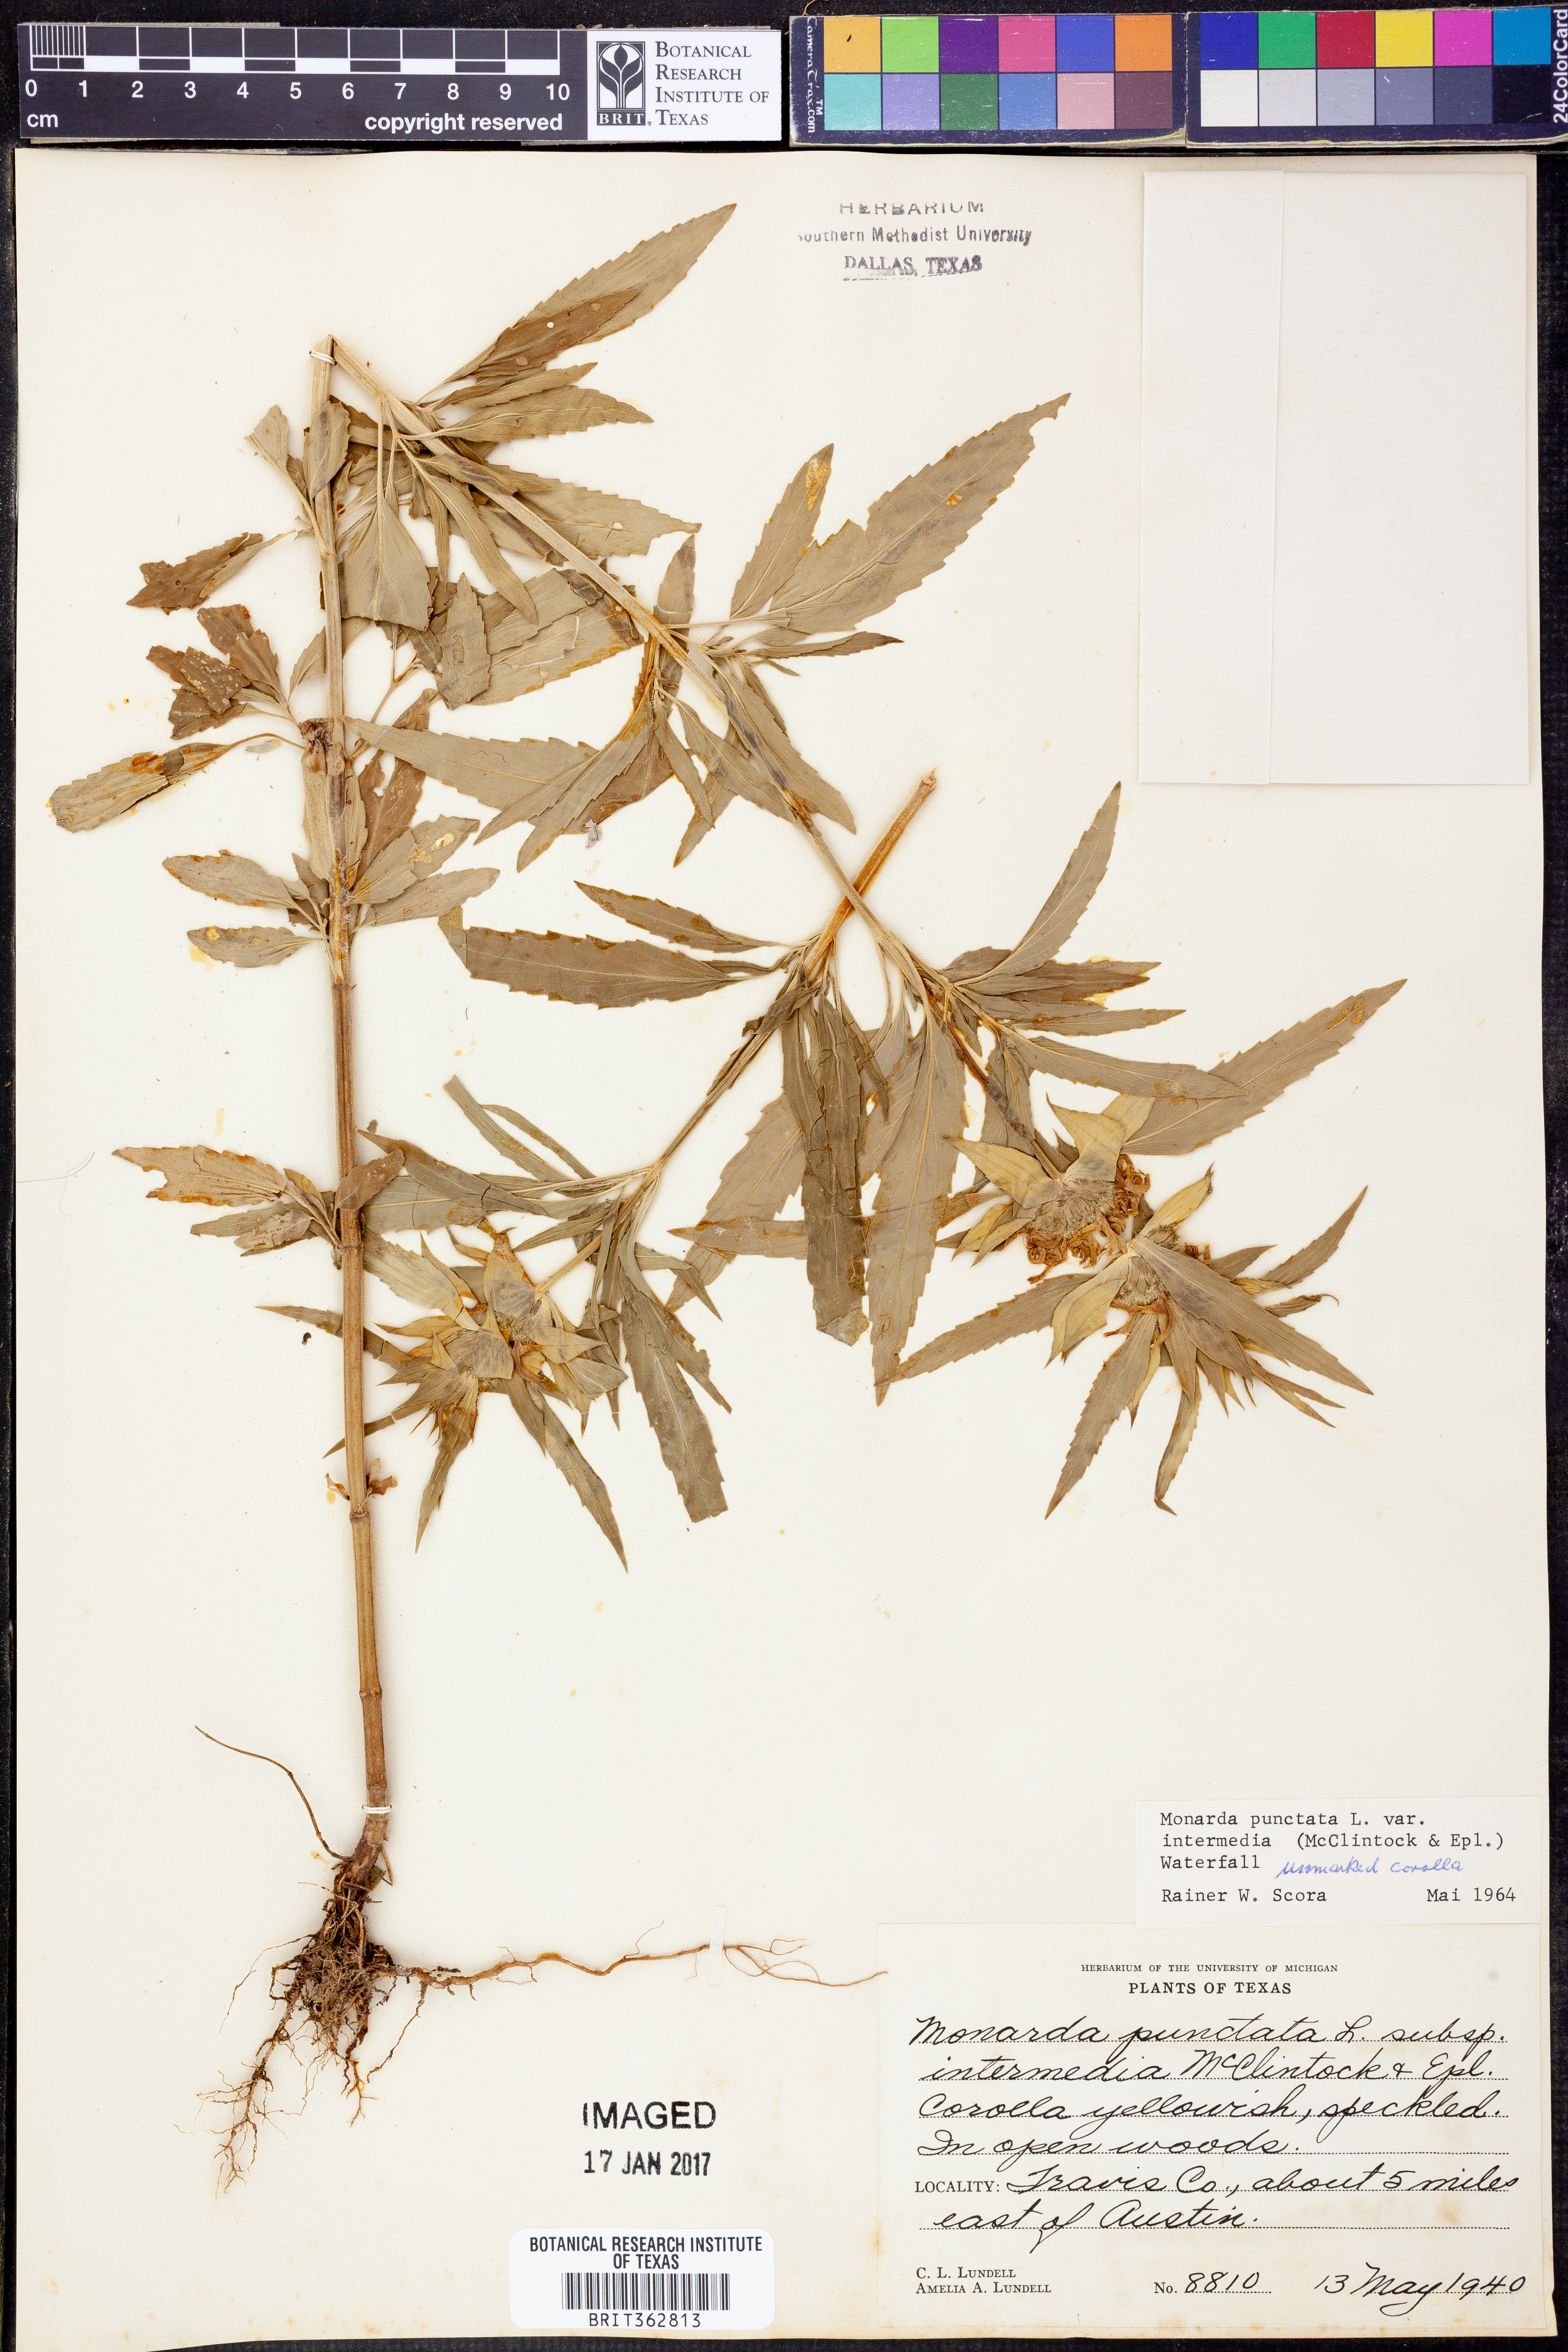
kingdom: Plantae
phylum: Tracheophyta
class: Magnoliopsida
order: Lamiales
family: Lamiaceae
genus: Monarda
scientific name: Monarda punctata
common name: Dotted monarda
